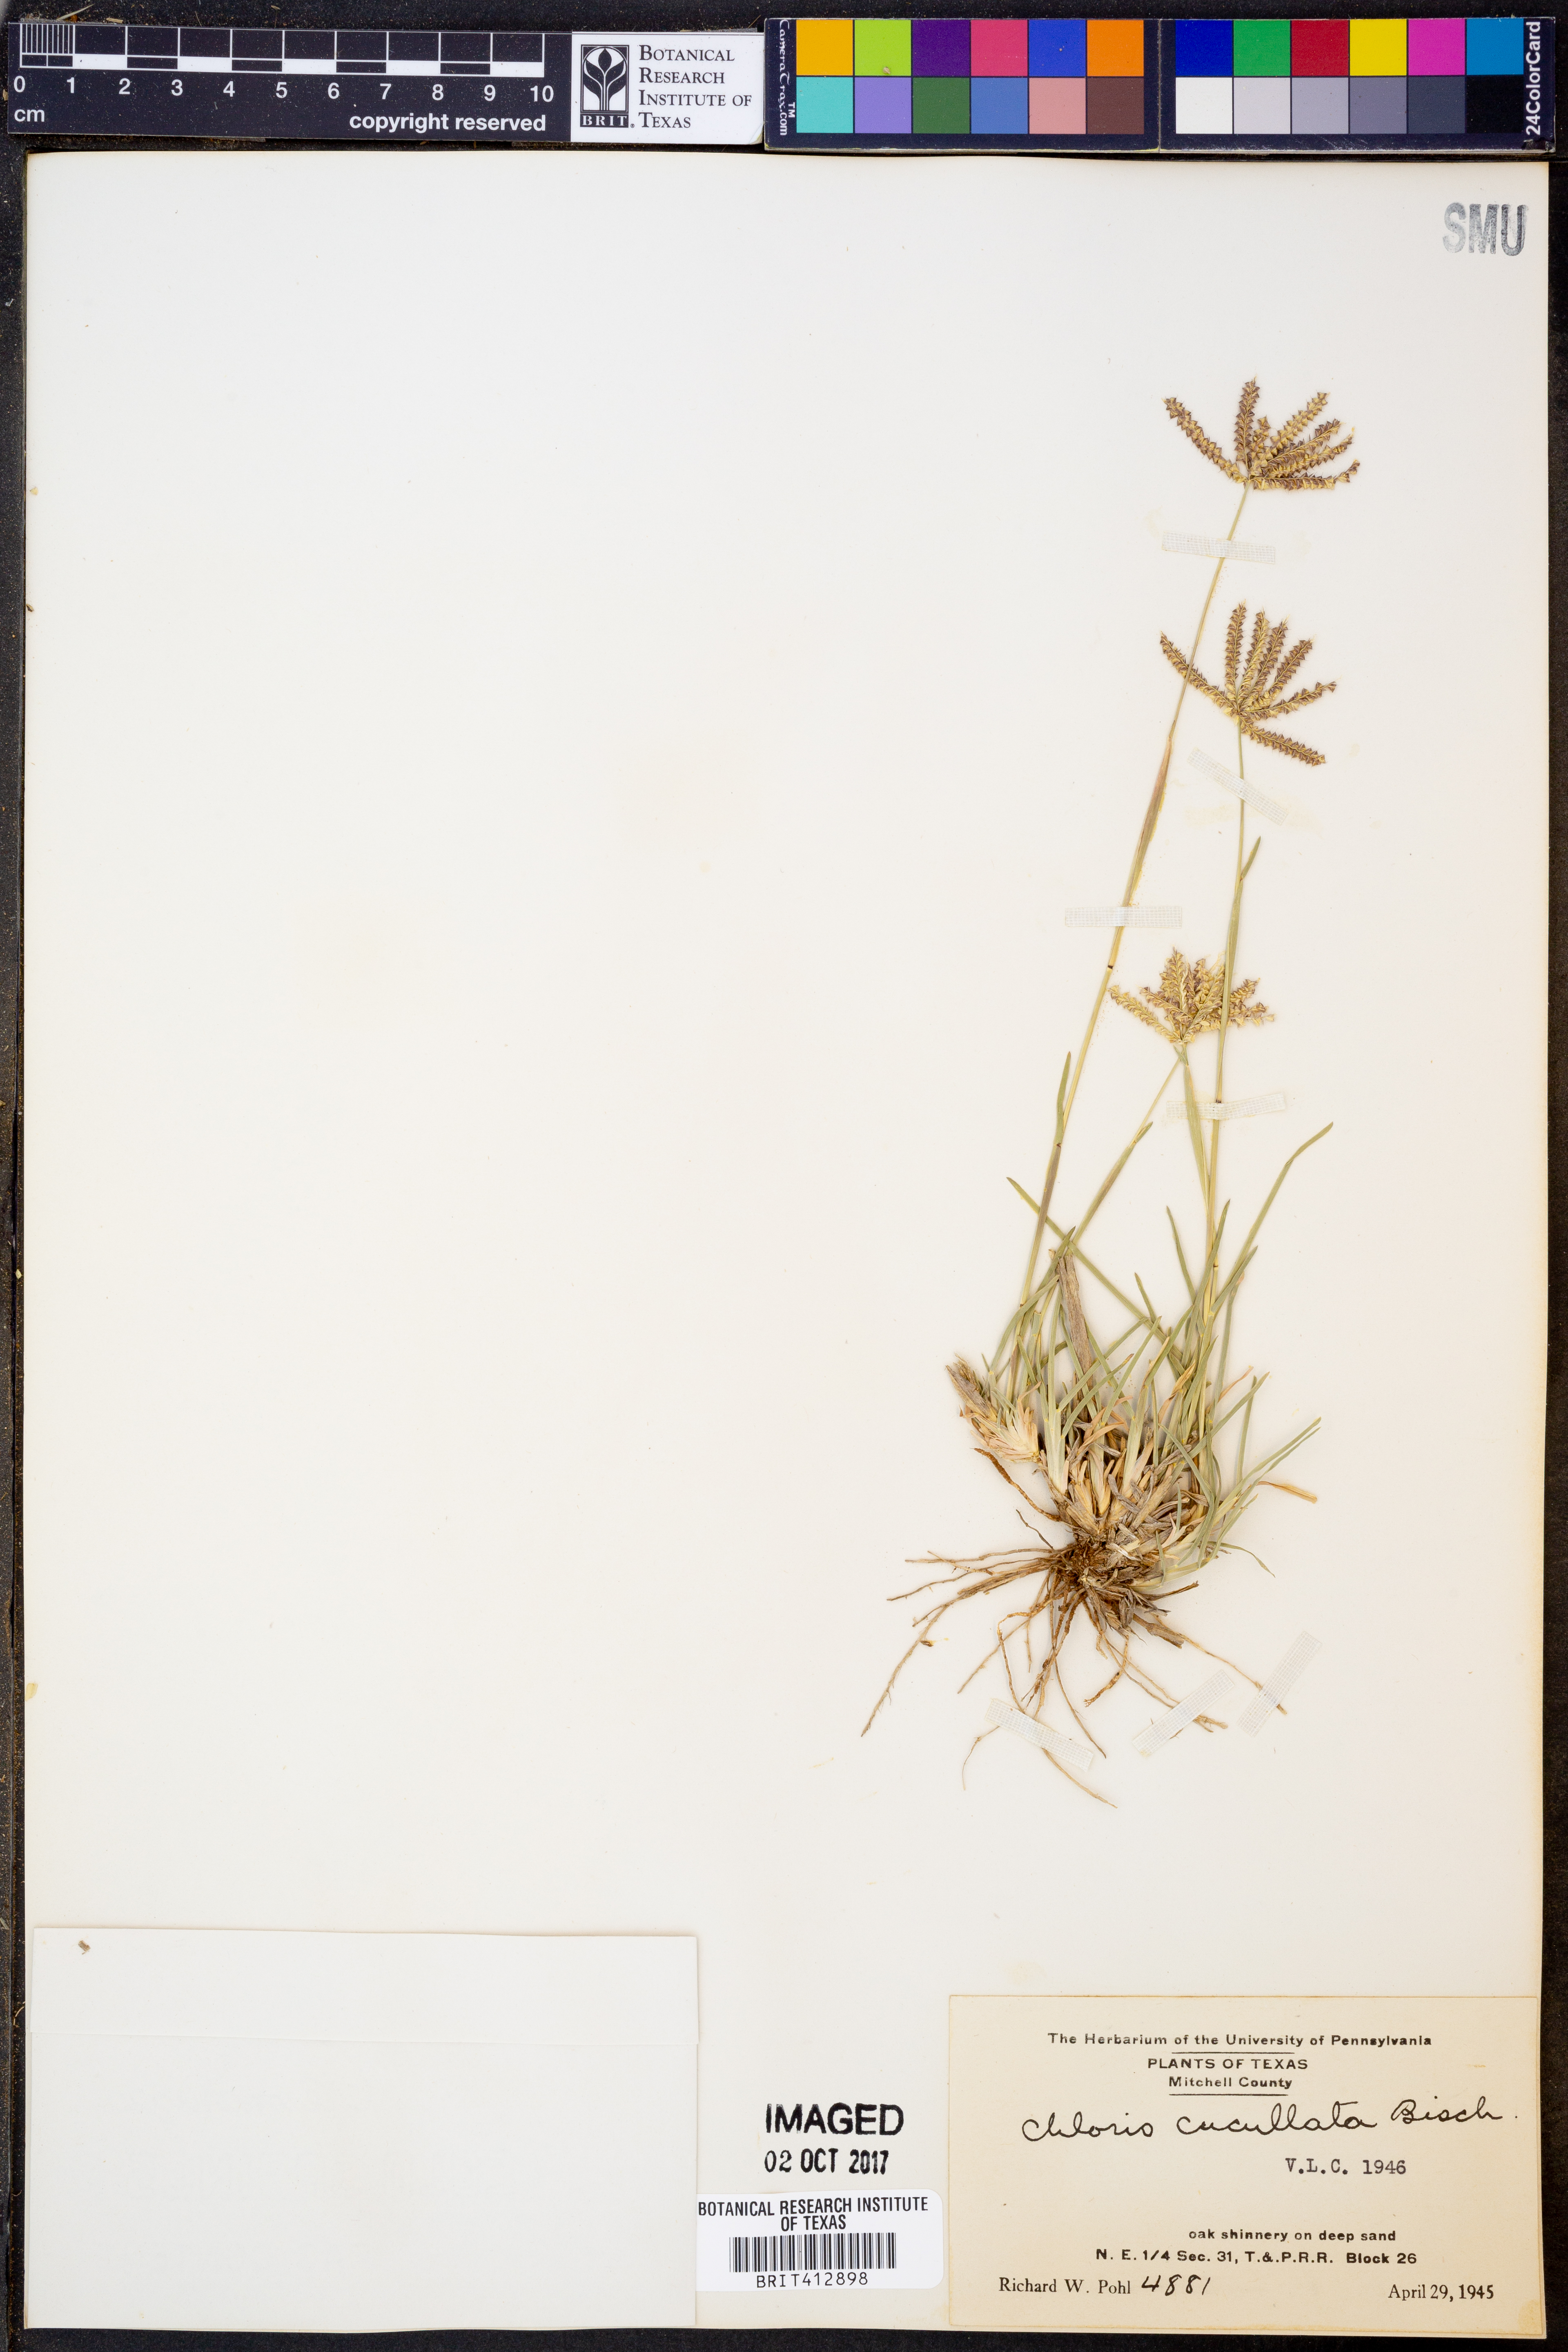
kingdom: Plantae
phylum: Tracheophyta
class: Liliopsida
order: Poales
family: Poaceae
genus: Chloris
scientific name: Chloris cucullata
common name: Hooded windmill grass
